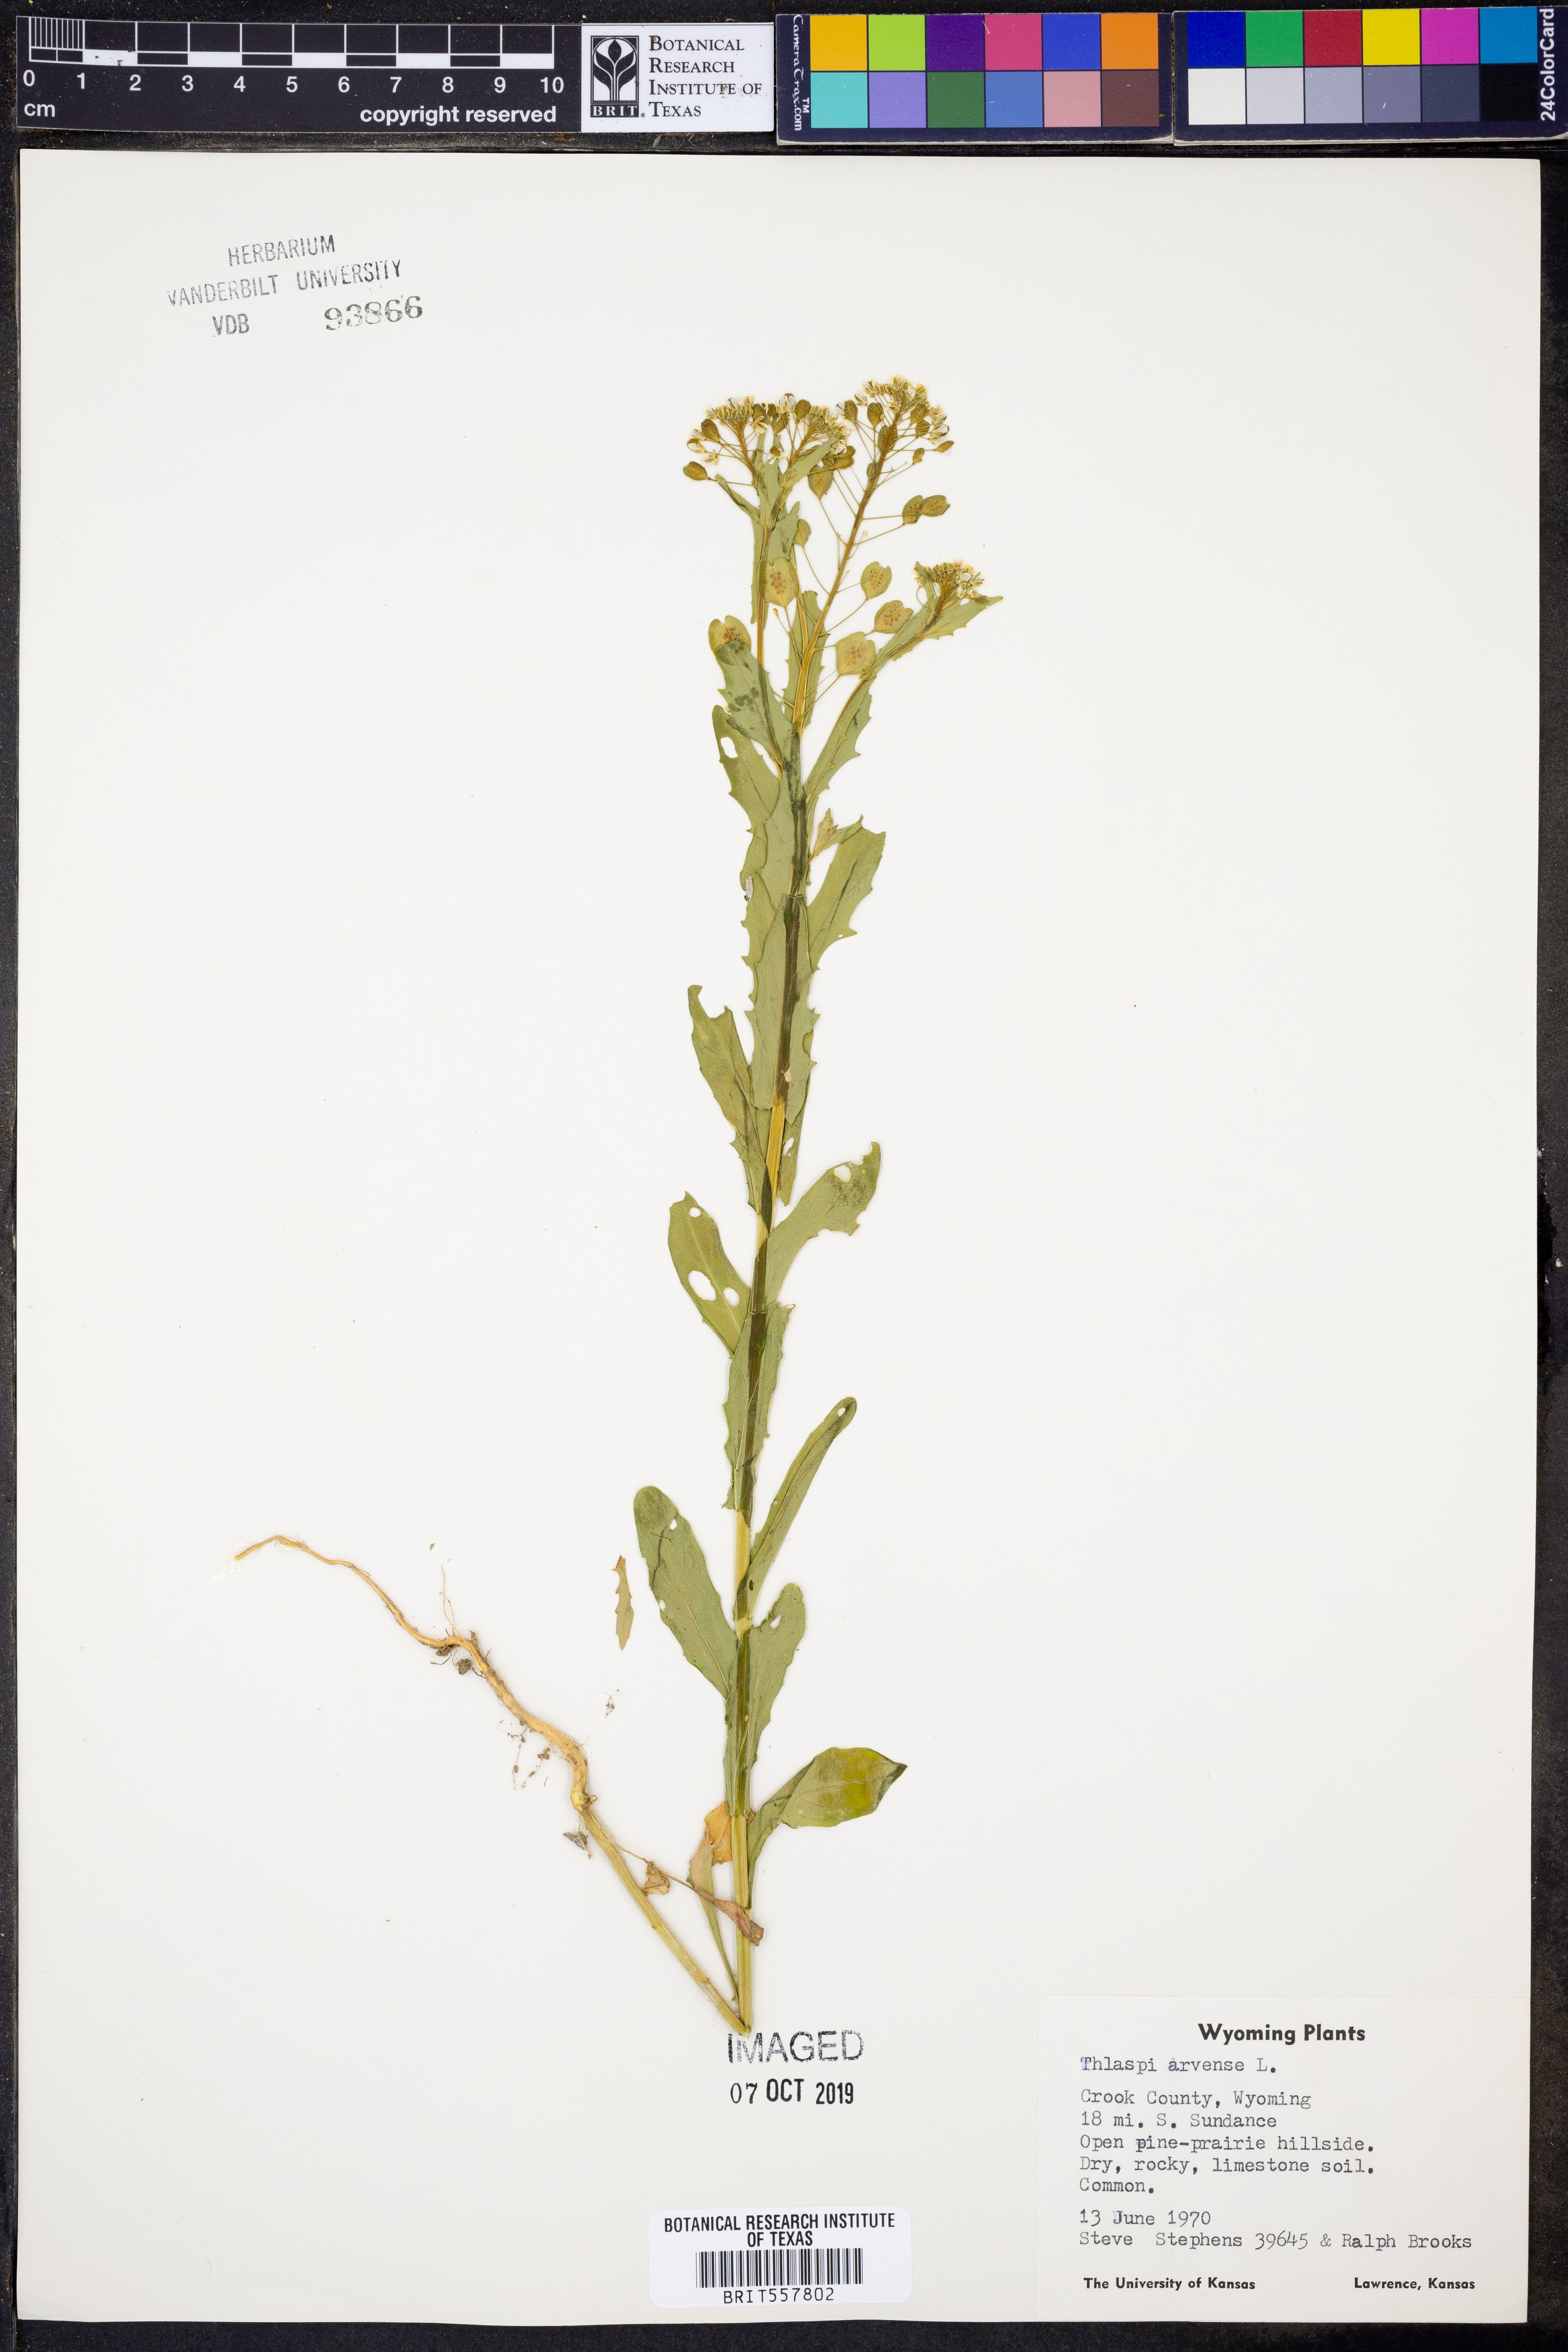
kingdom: Plantae
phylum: Tracheophyta
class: Magnoliopsida
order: Brassicales
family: Brassicaceae
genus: Thlaspi
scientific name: Thlaspi arvense
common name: Field pennycress
